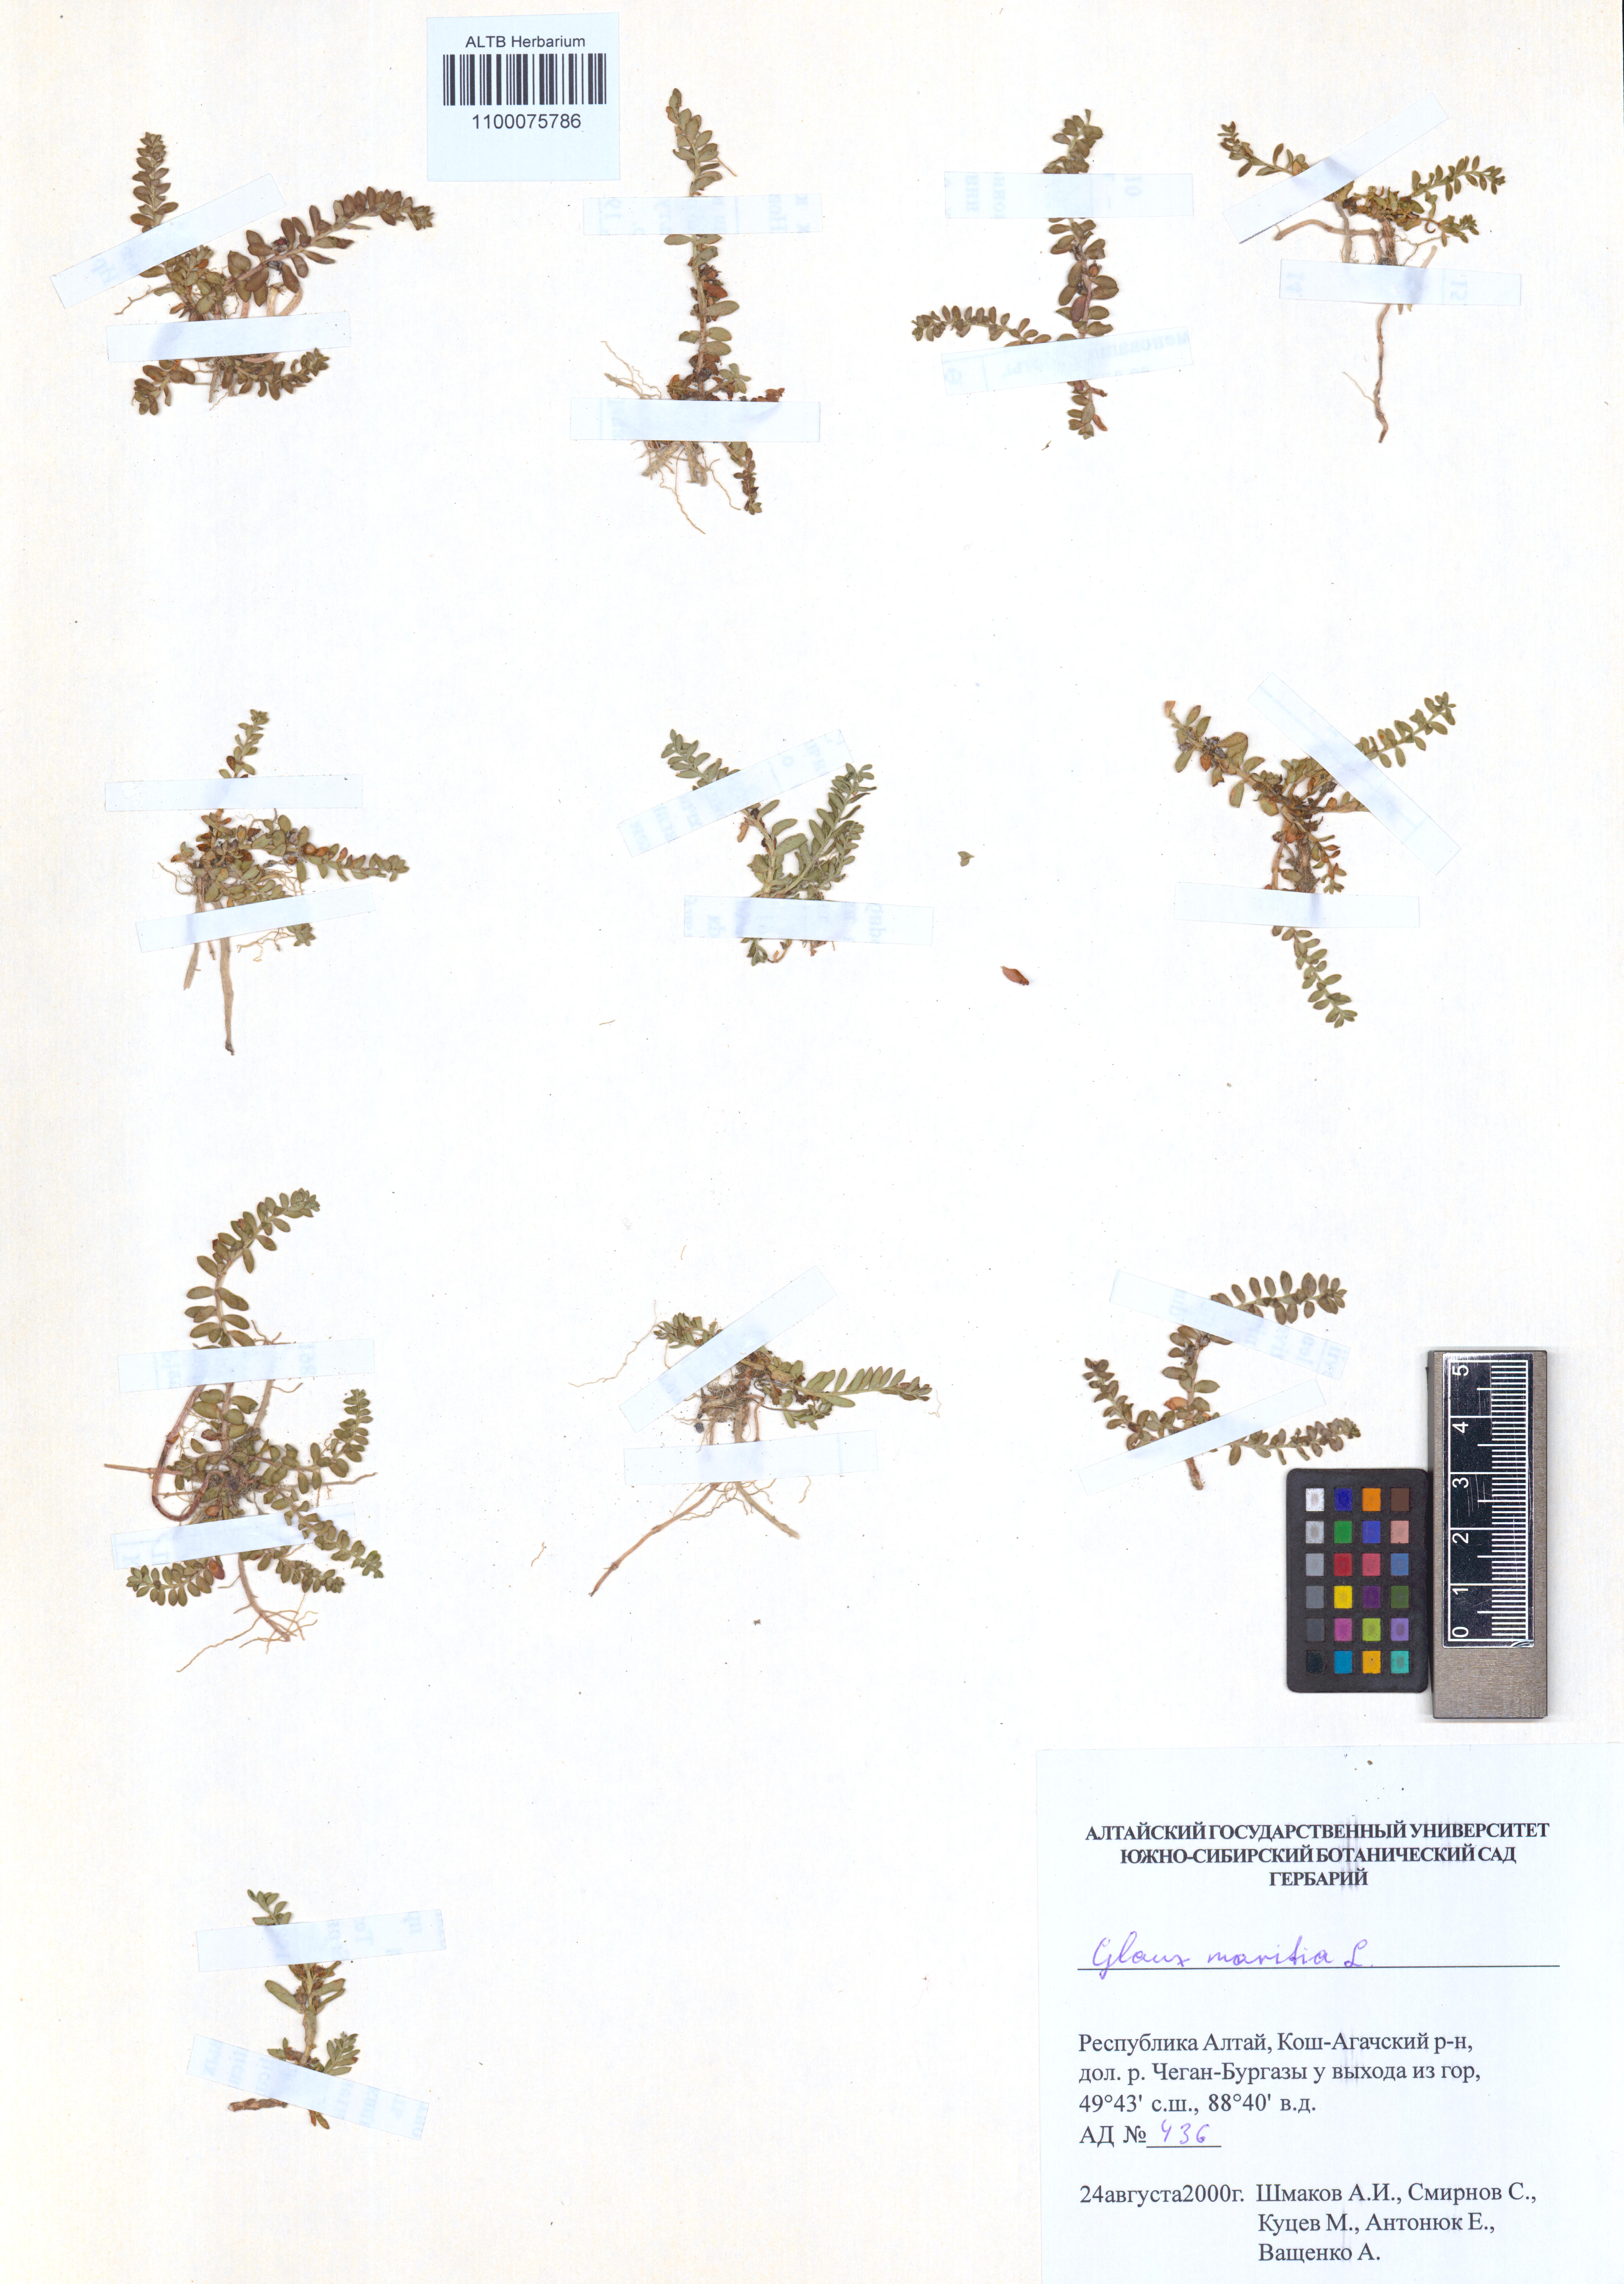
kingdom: Plantae
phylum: Tracheophyta
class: Magnoliopsida
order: Ericales
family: Primulaceae
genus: Lysimachia
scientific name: Lysimachia maritima
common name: Sea milkwort
